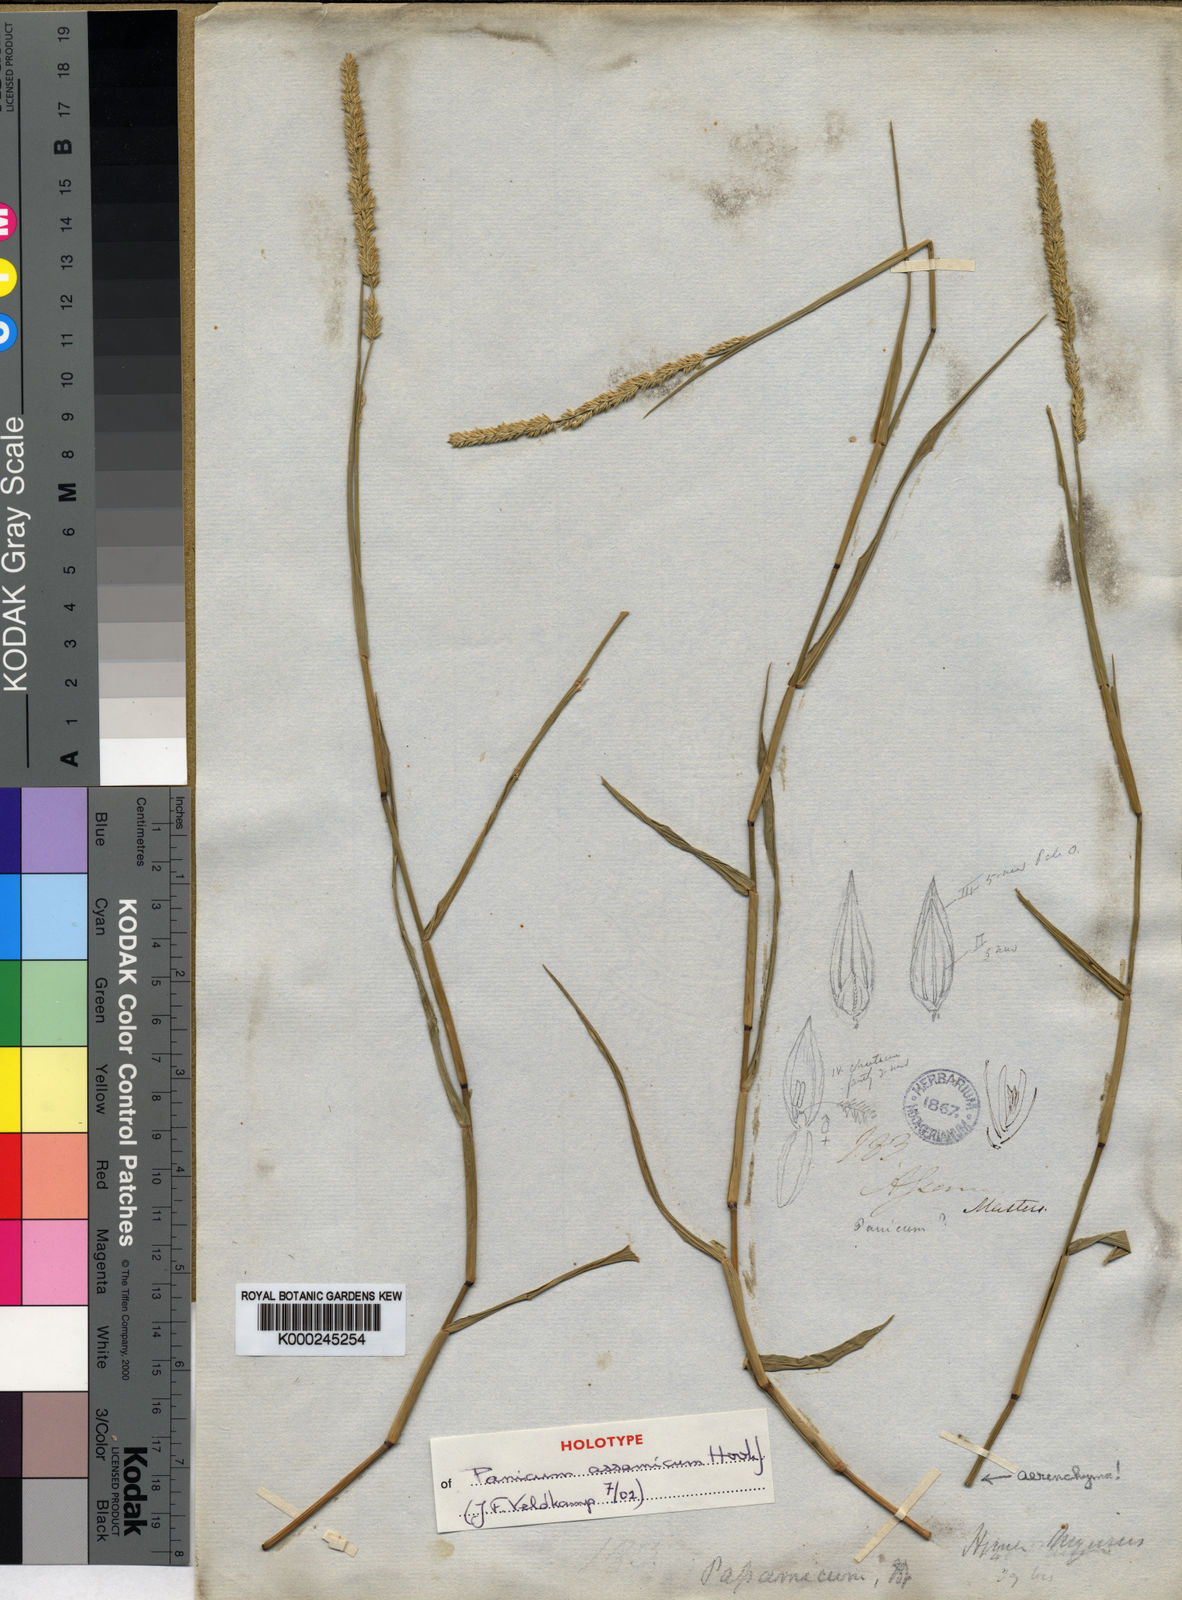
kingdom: Plantae
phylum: Tracheophyta
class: Liliopsida
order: Poales
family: Poaceae
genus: Hymenachne
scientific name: Hymenachne assamica
